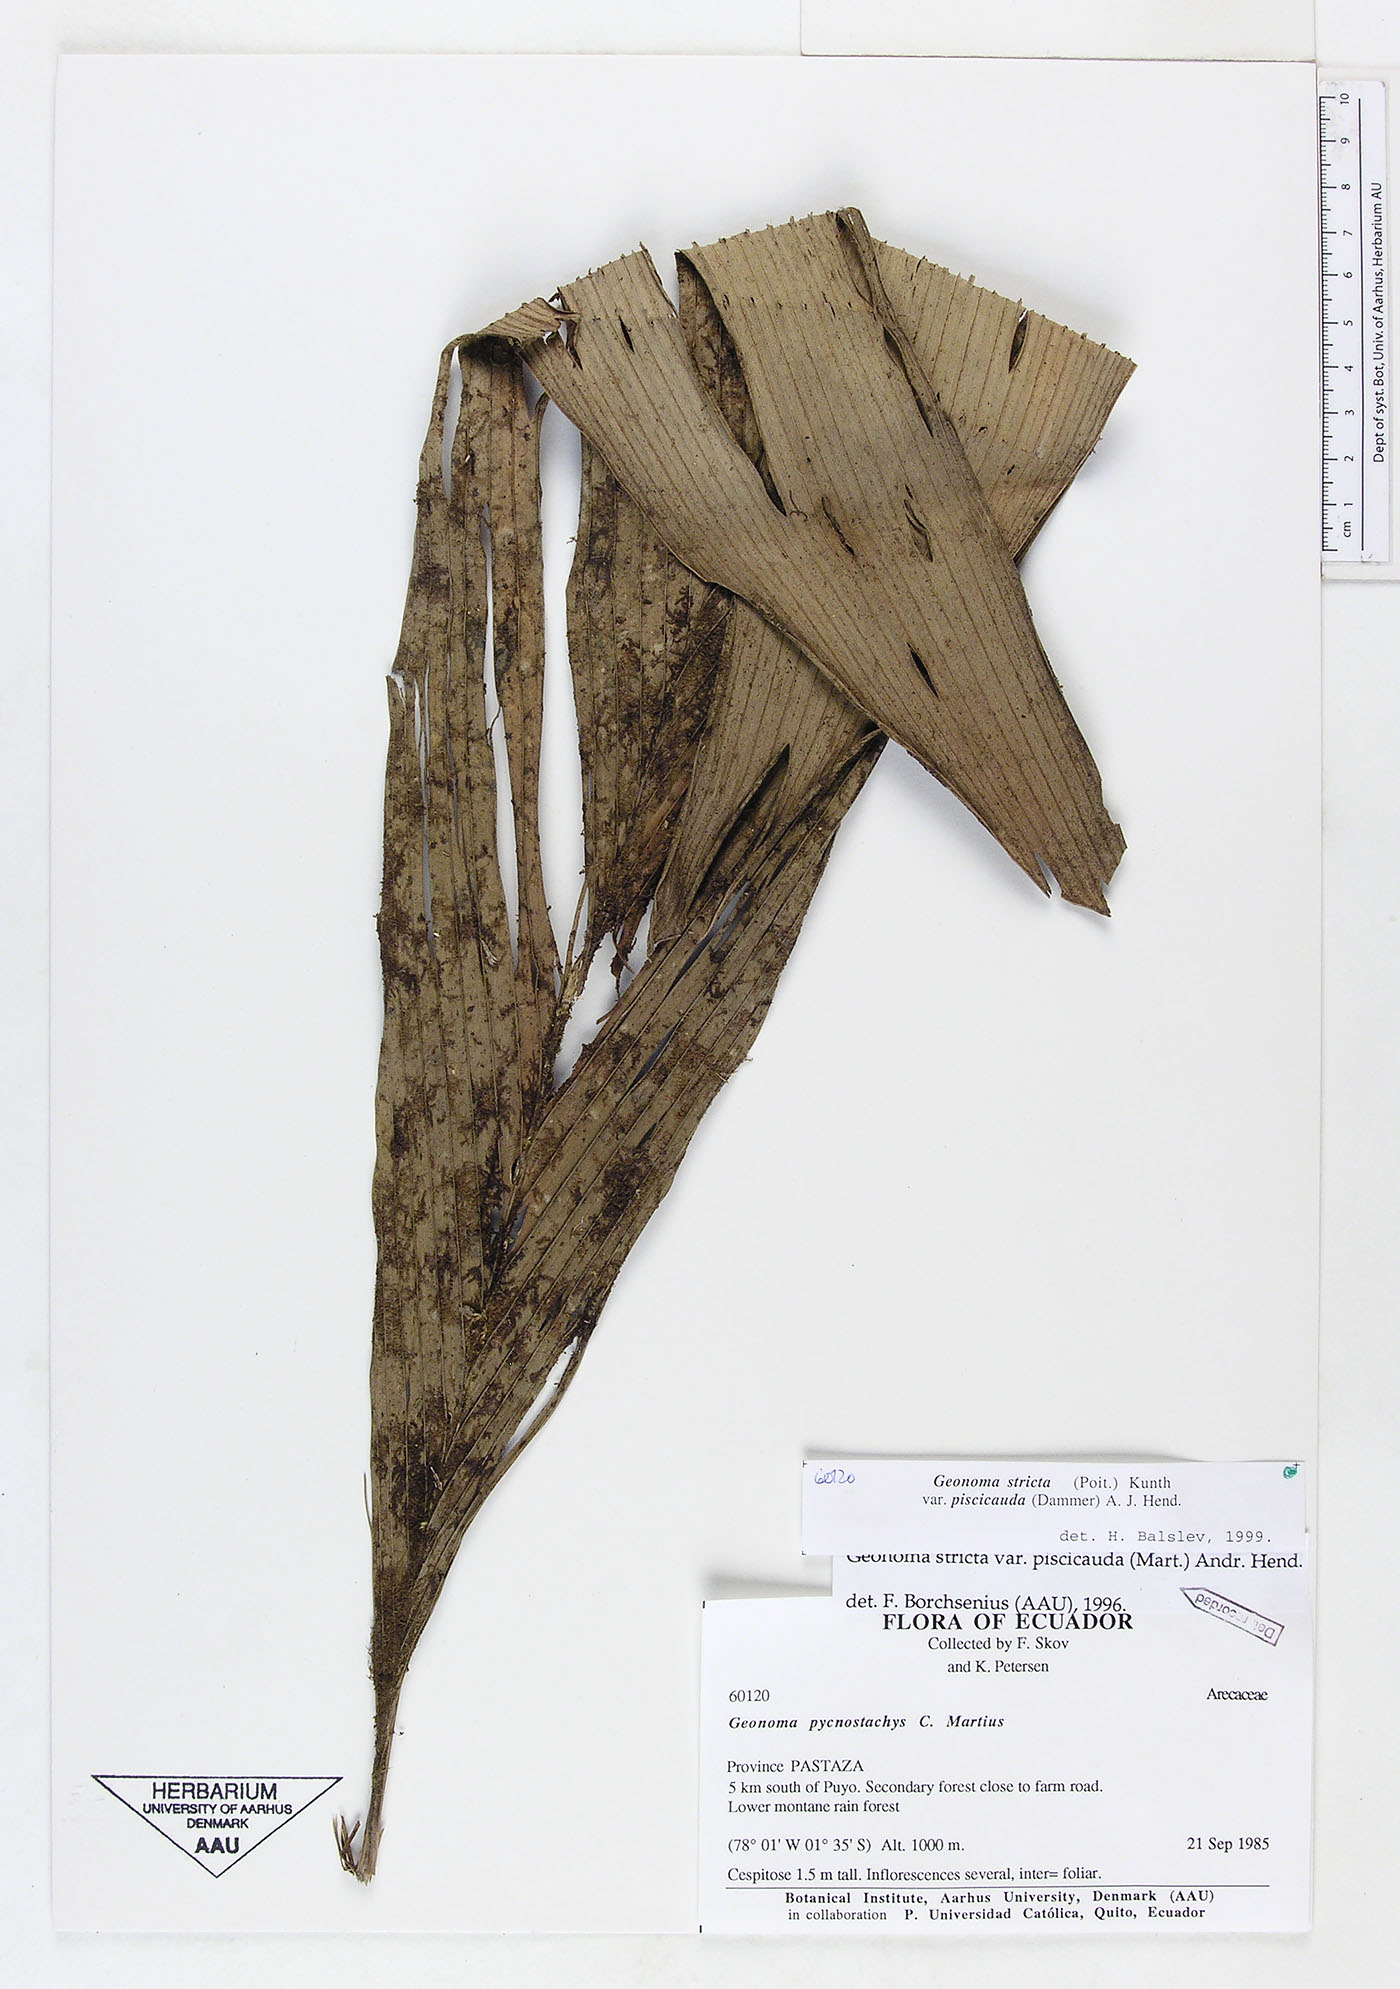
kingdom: Plantae
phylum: Tracheophyta
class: Liliopsida
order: Arecales
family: Arecaceae
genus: Geonoma
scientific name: Geonoma stricta
